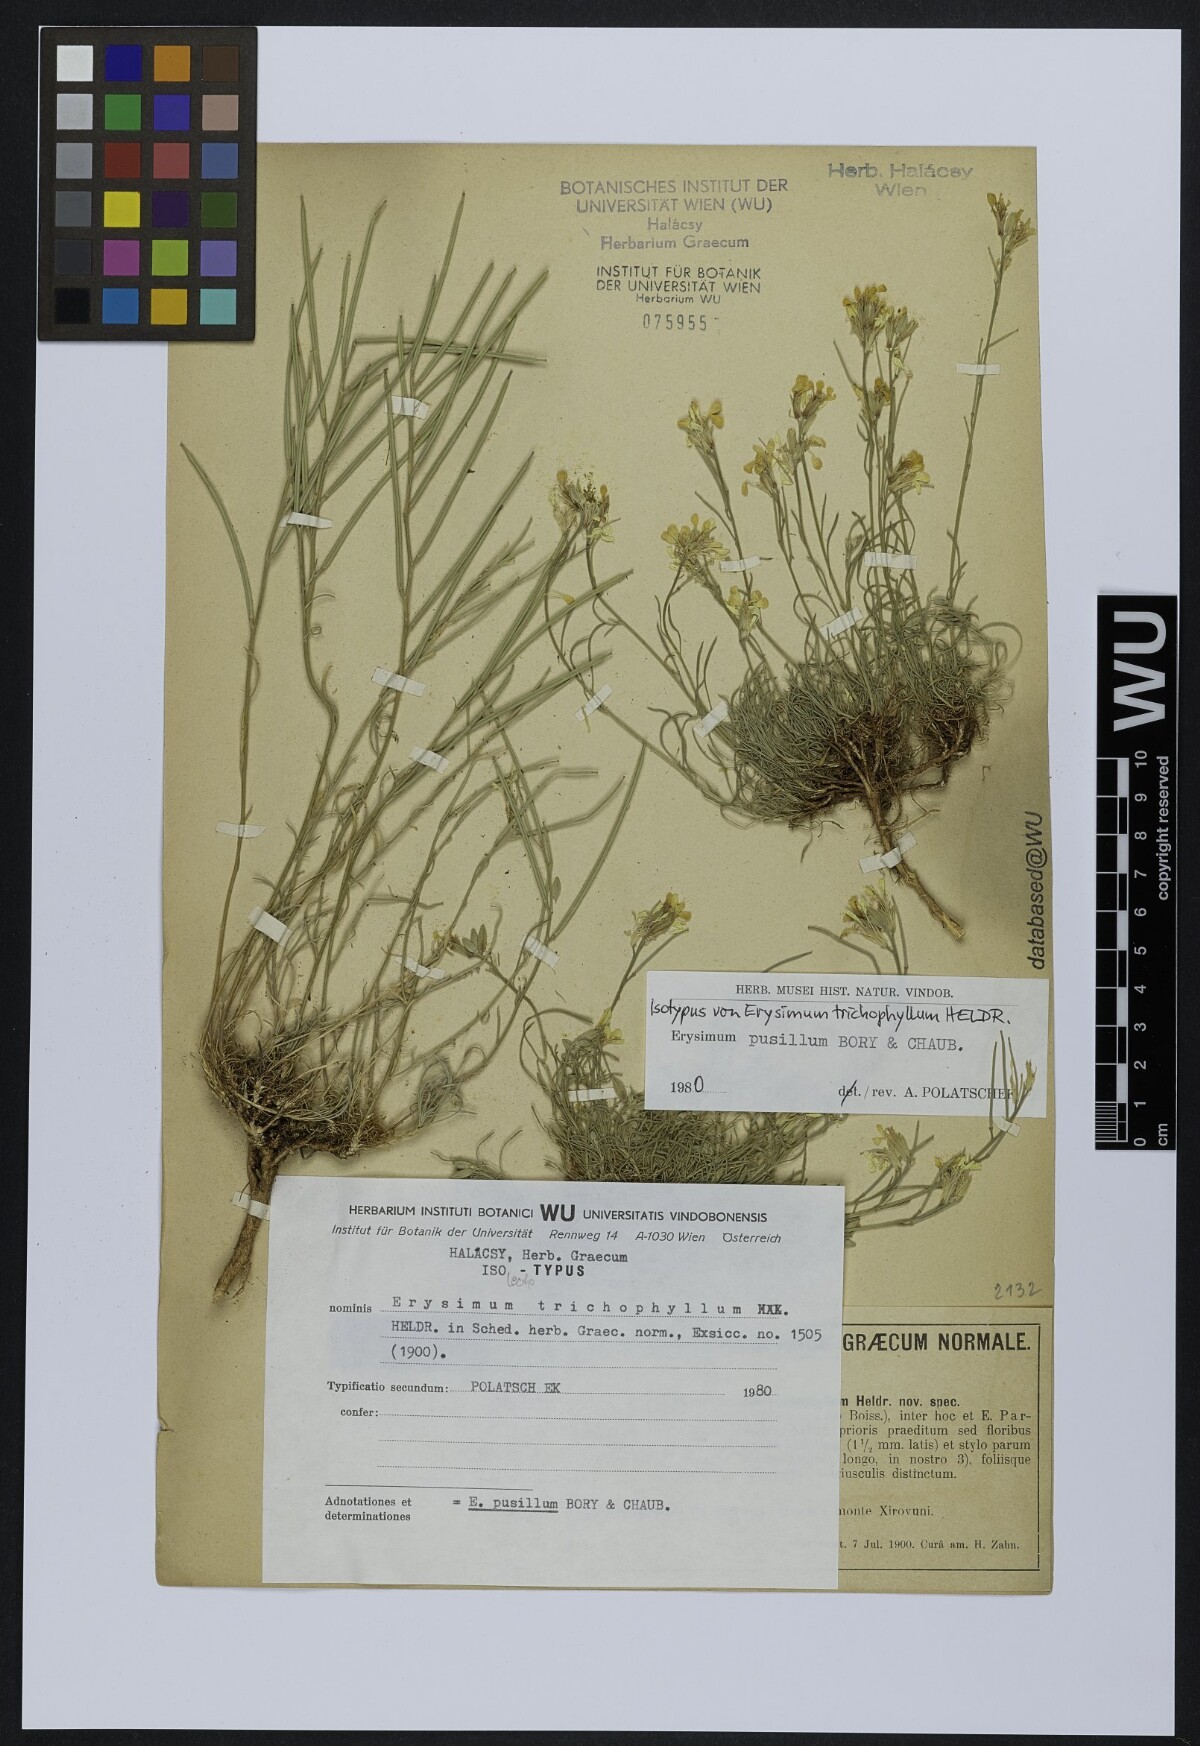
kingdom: Plantae
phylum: Tracheophyta
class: Magnoliopsida
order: Brassicales
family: Brassicaceae
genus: Erysimum
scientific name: Erysimum pusillum
